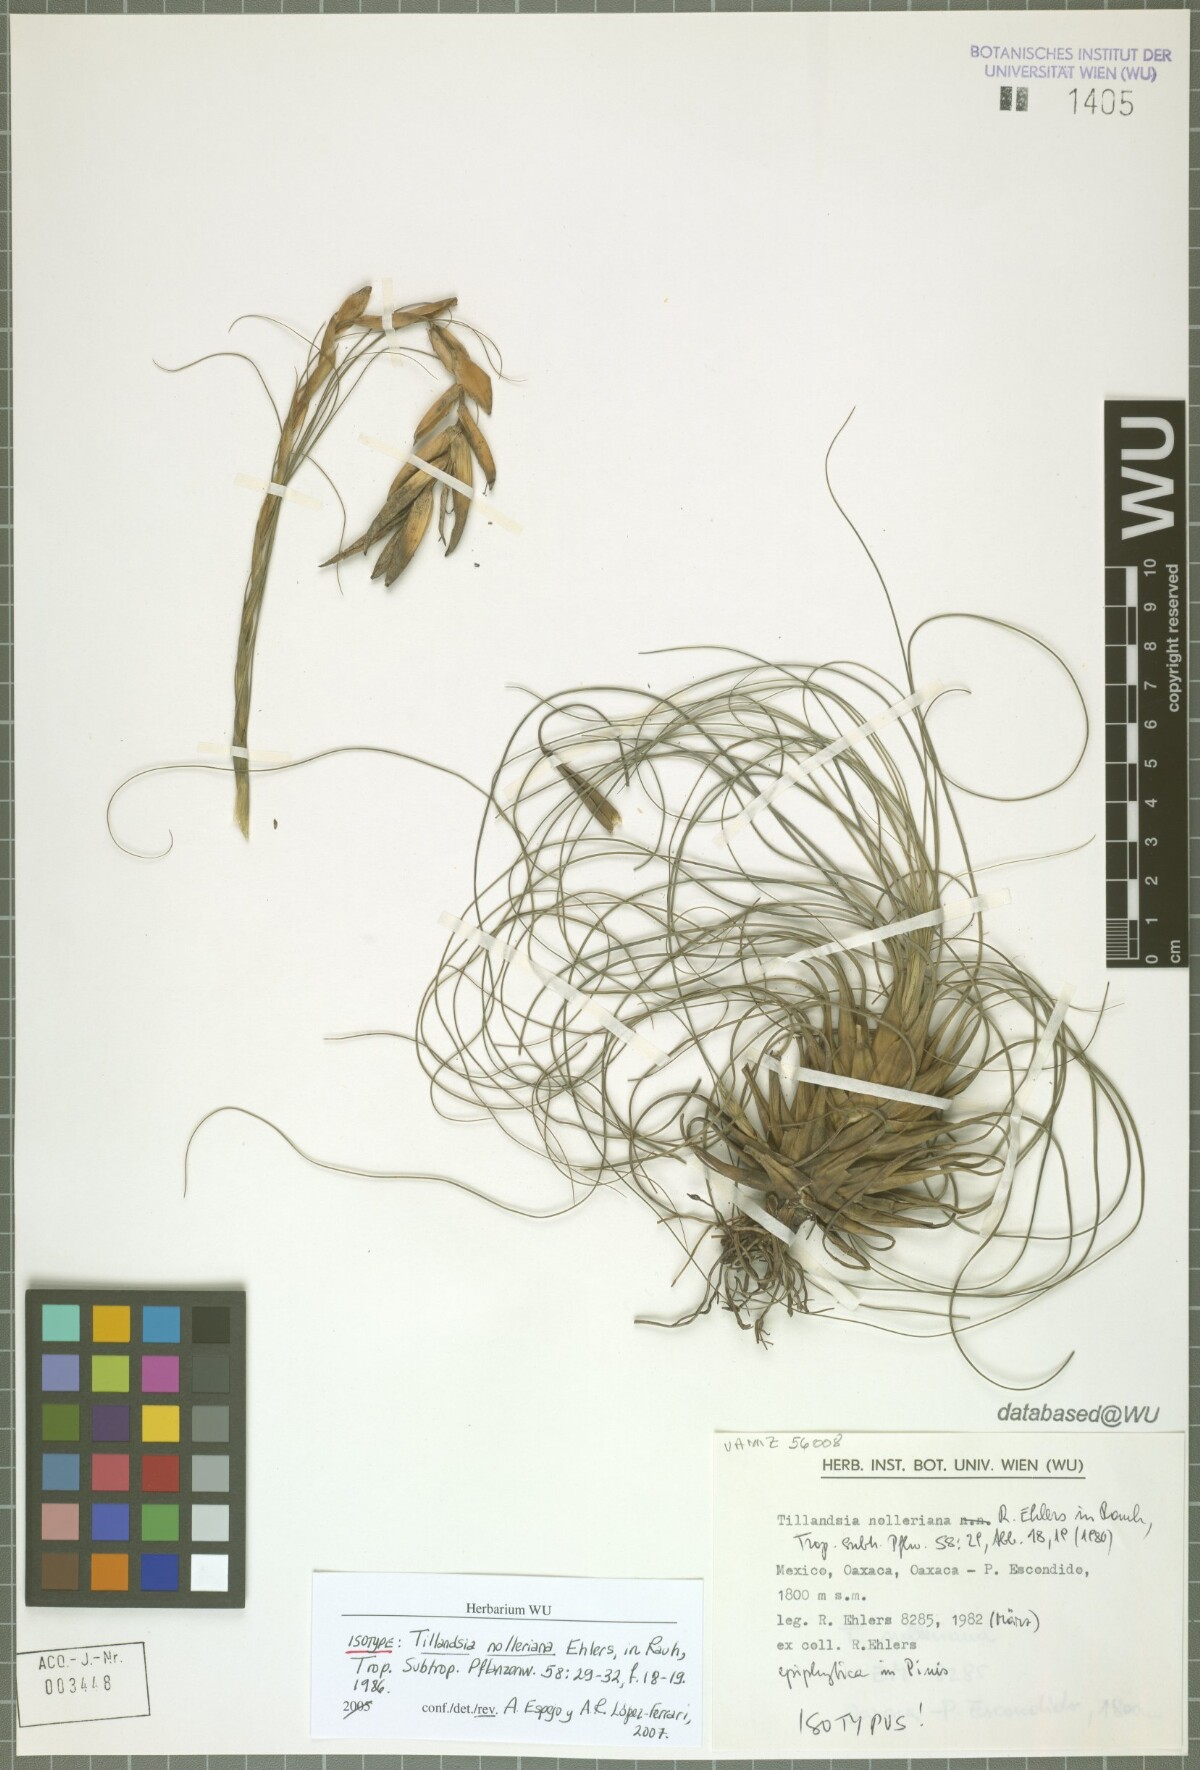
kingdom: Plantae
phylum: Tracheophyta
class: Liliopsida
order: Poales
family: Bromeliaceae
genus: Tillandsia
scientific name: Tillandsia nolleriana
